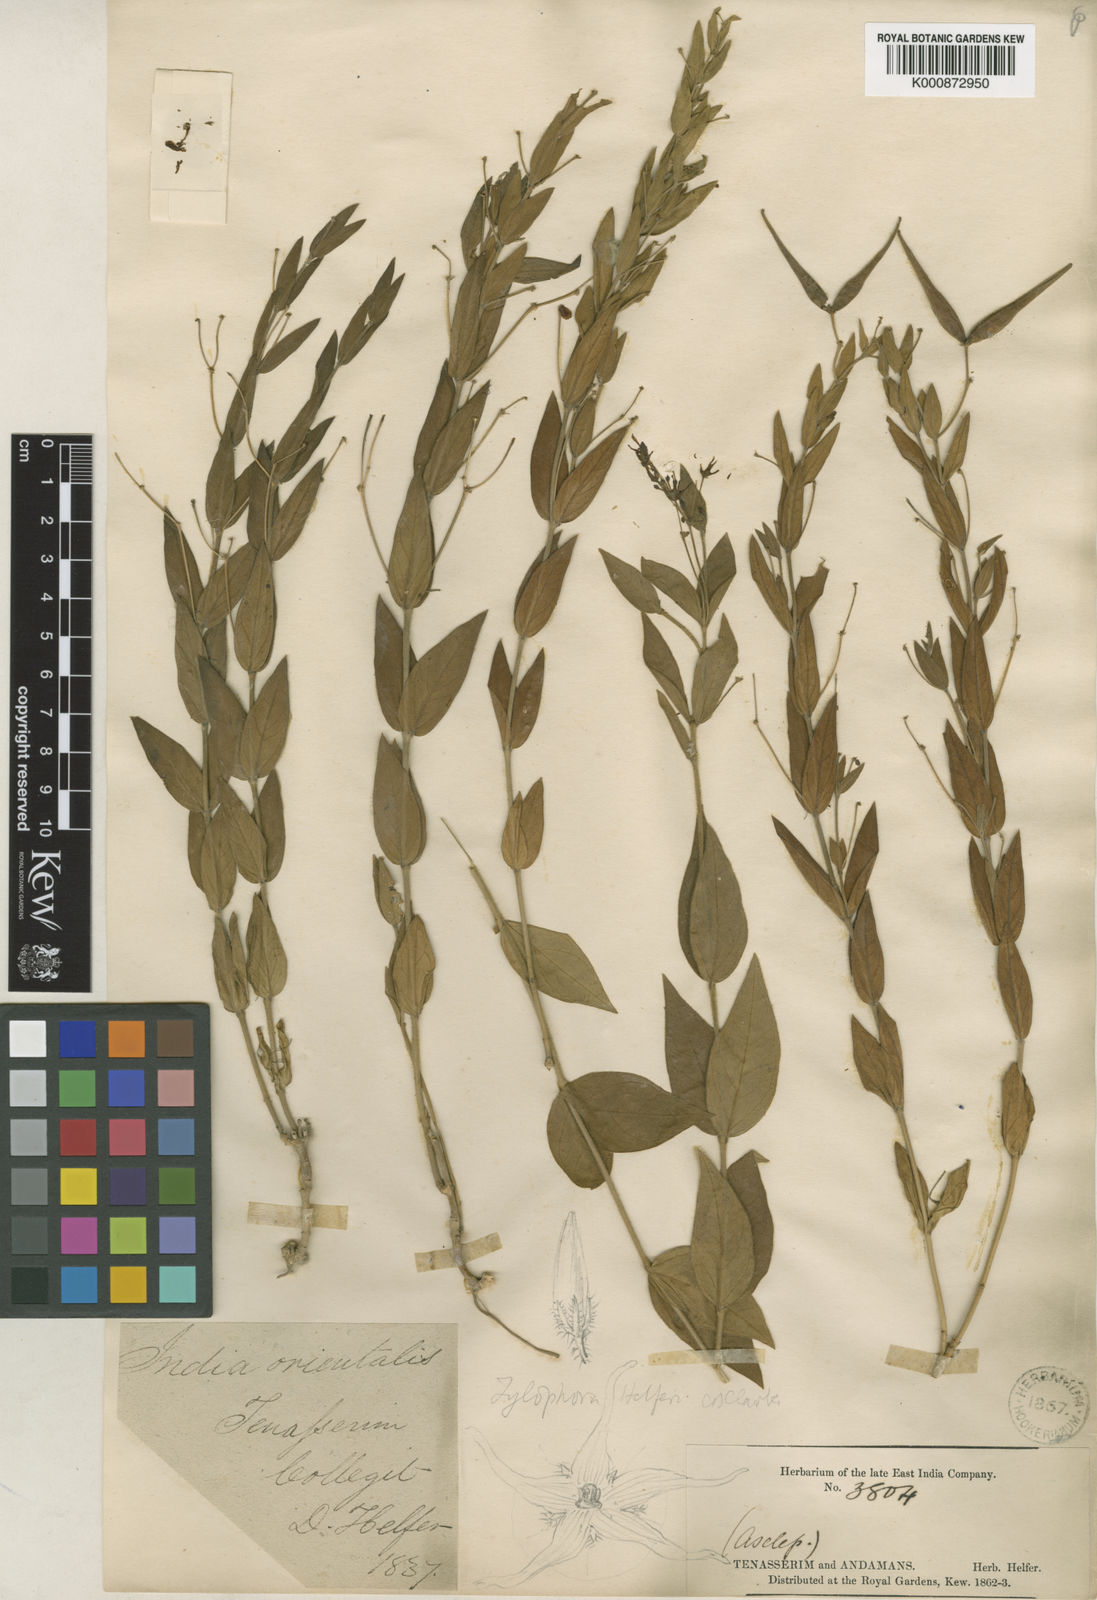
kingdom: Plantae
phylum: Tracheophyta
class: Magnoliopsida
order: Gentianales
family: Apocynaceae
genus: Vincetoxicum
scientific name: Vincetoxicum helferi
